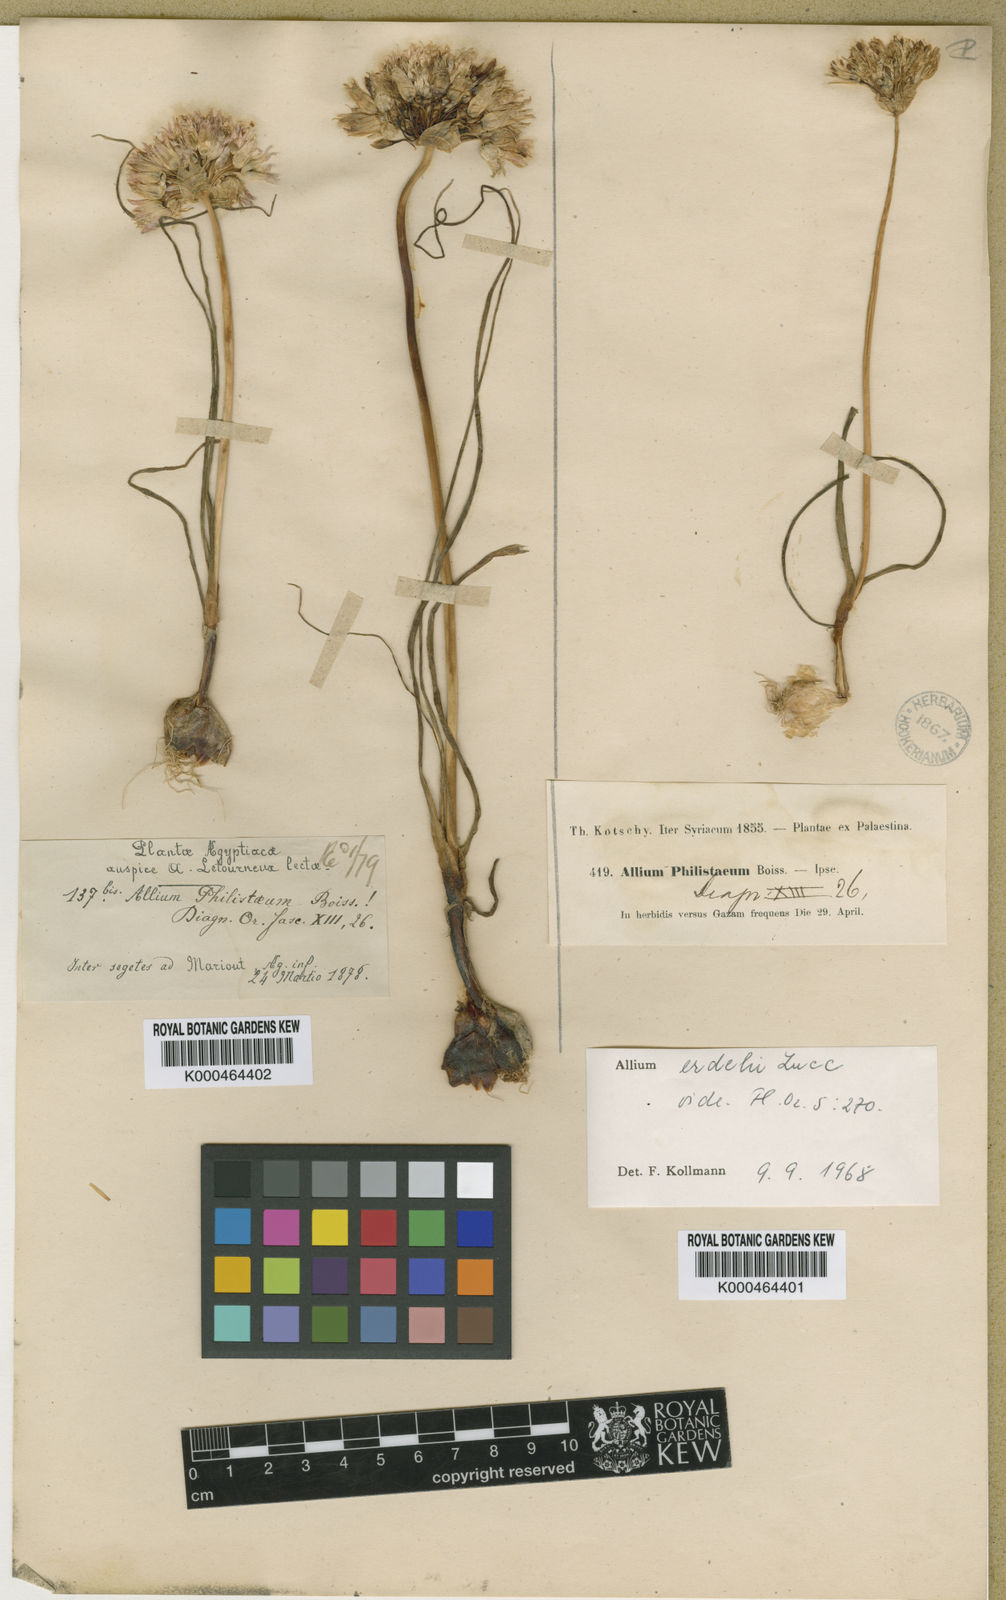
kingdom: Plantae
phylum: Tracheophyta
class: Liliopsida
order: Asparagales
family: Amaryllidaceae
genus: Allium
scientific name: Allium erdelii
